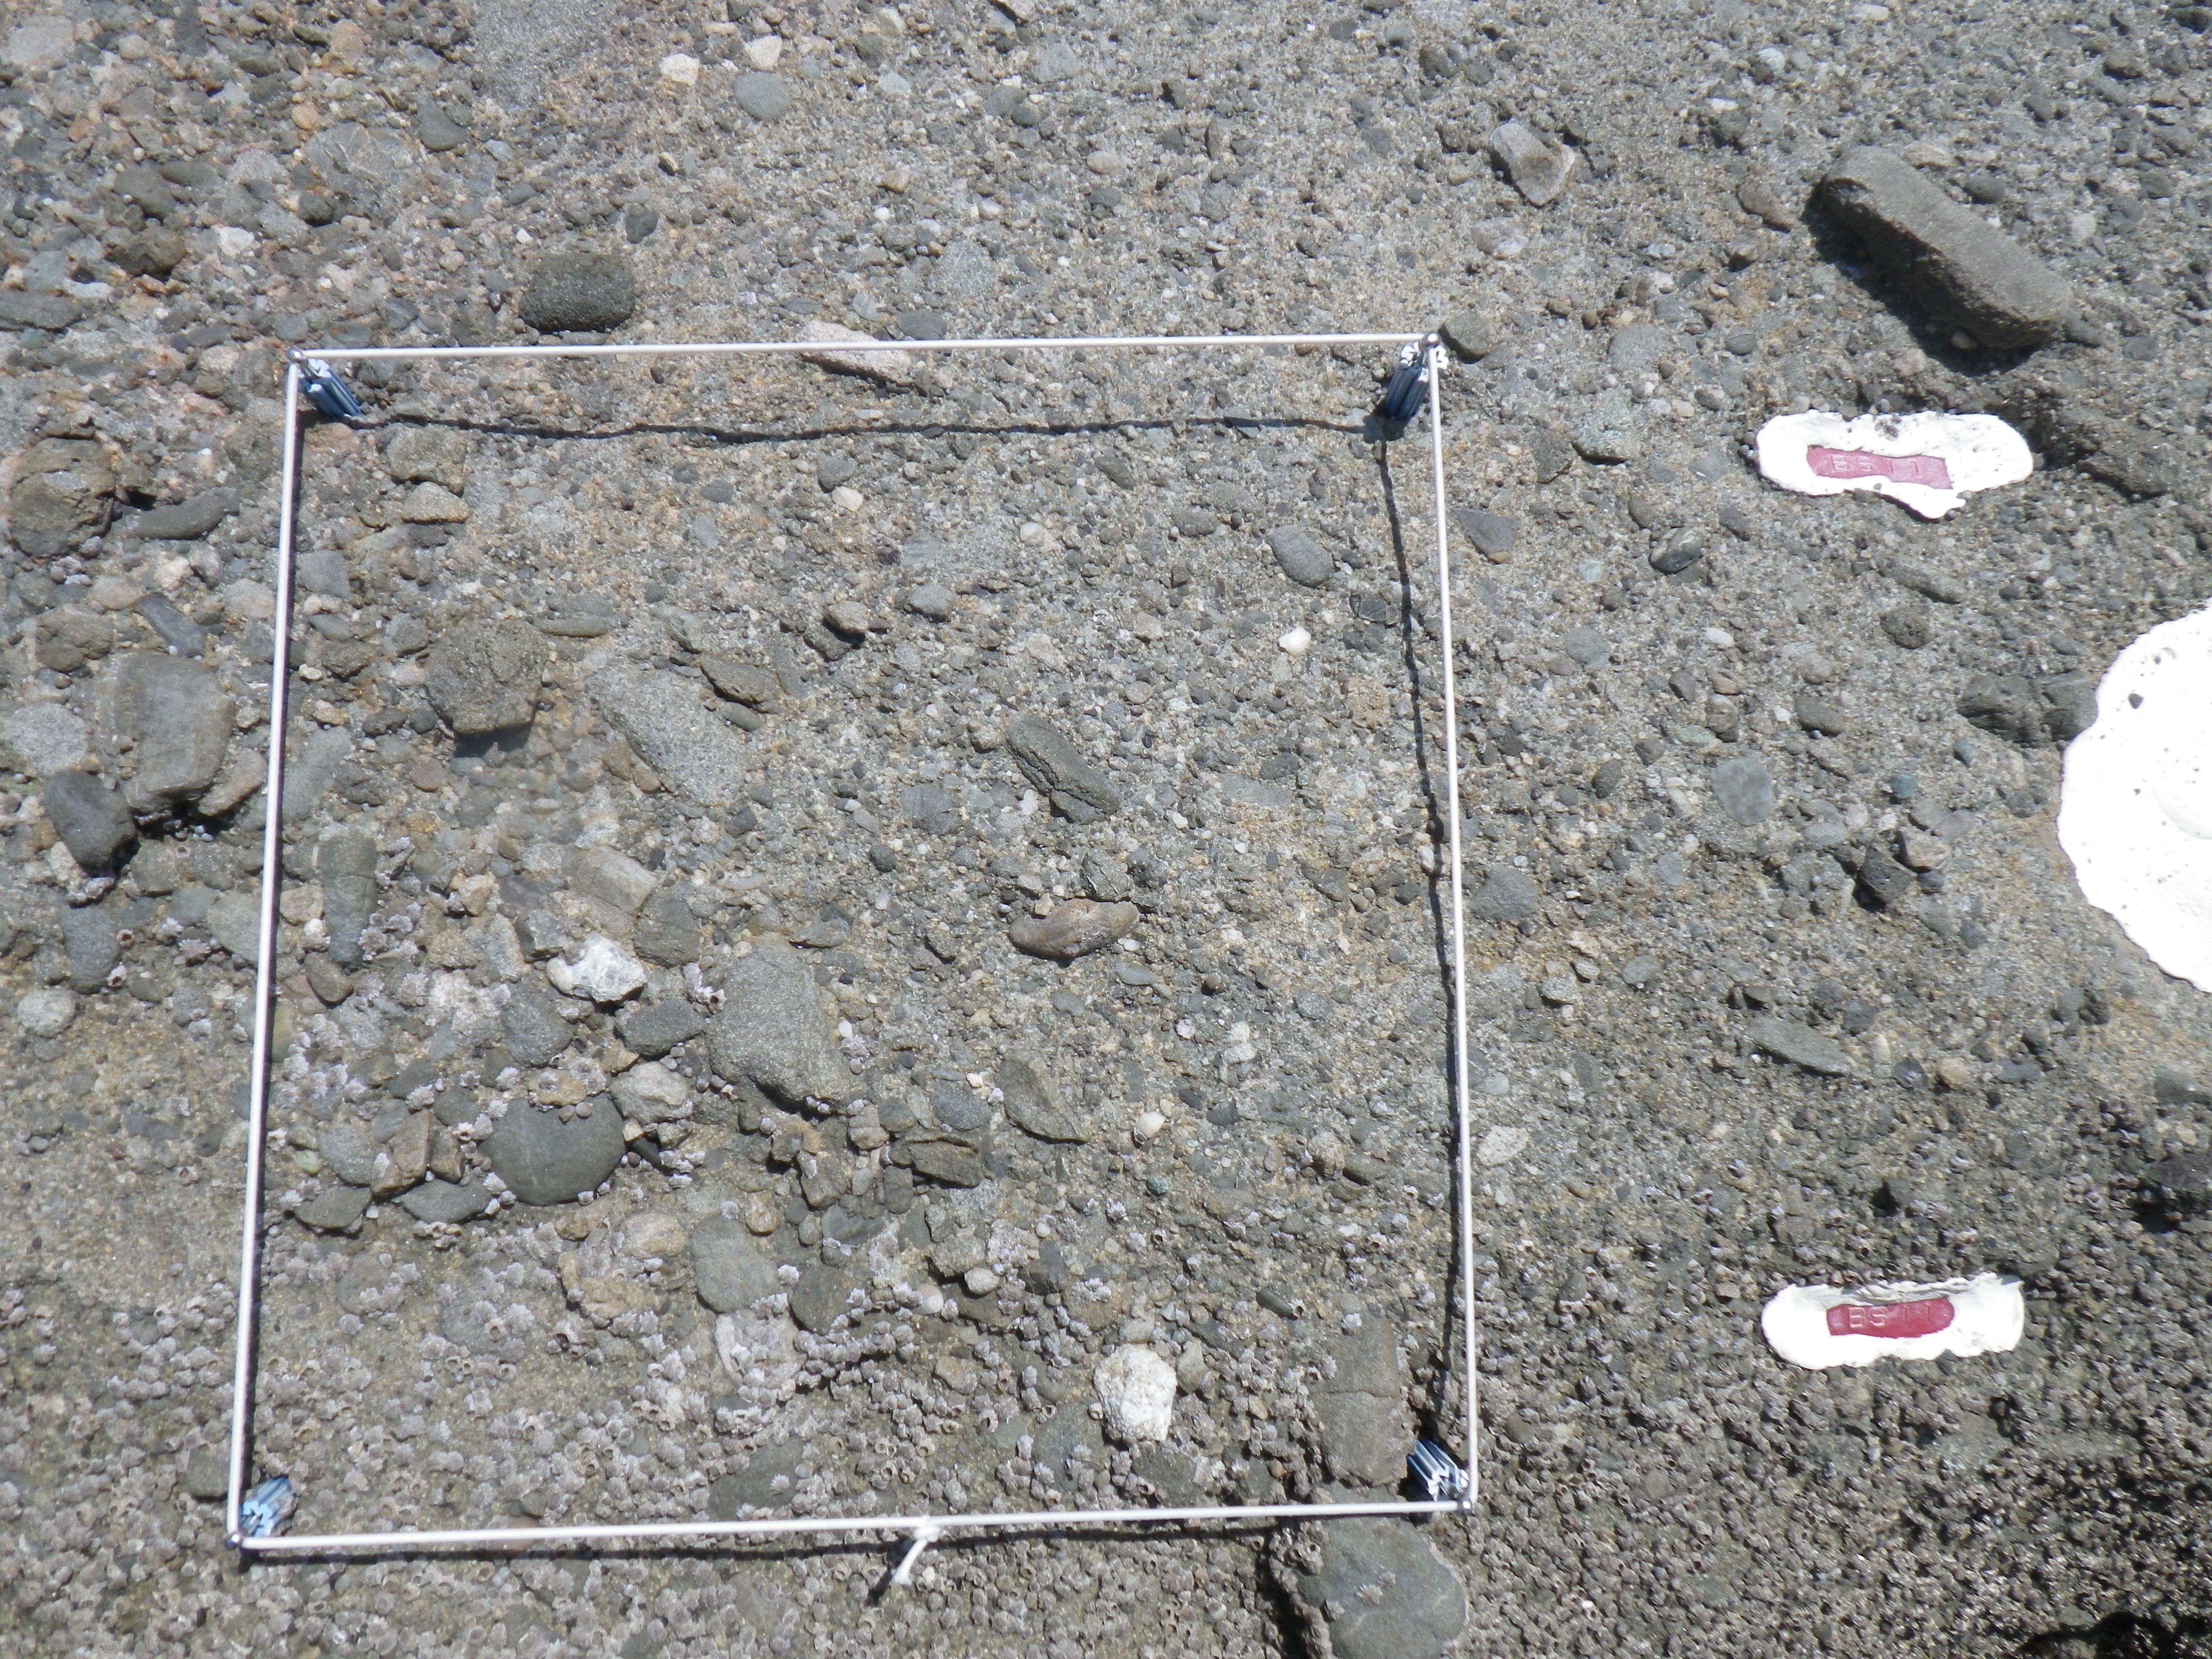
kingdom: Animalia
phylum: Arthropoda
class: Maxillopoda
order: Sessilia
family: Chthamalidae
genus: Chthamalus
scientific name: Chthamalus challengeri
